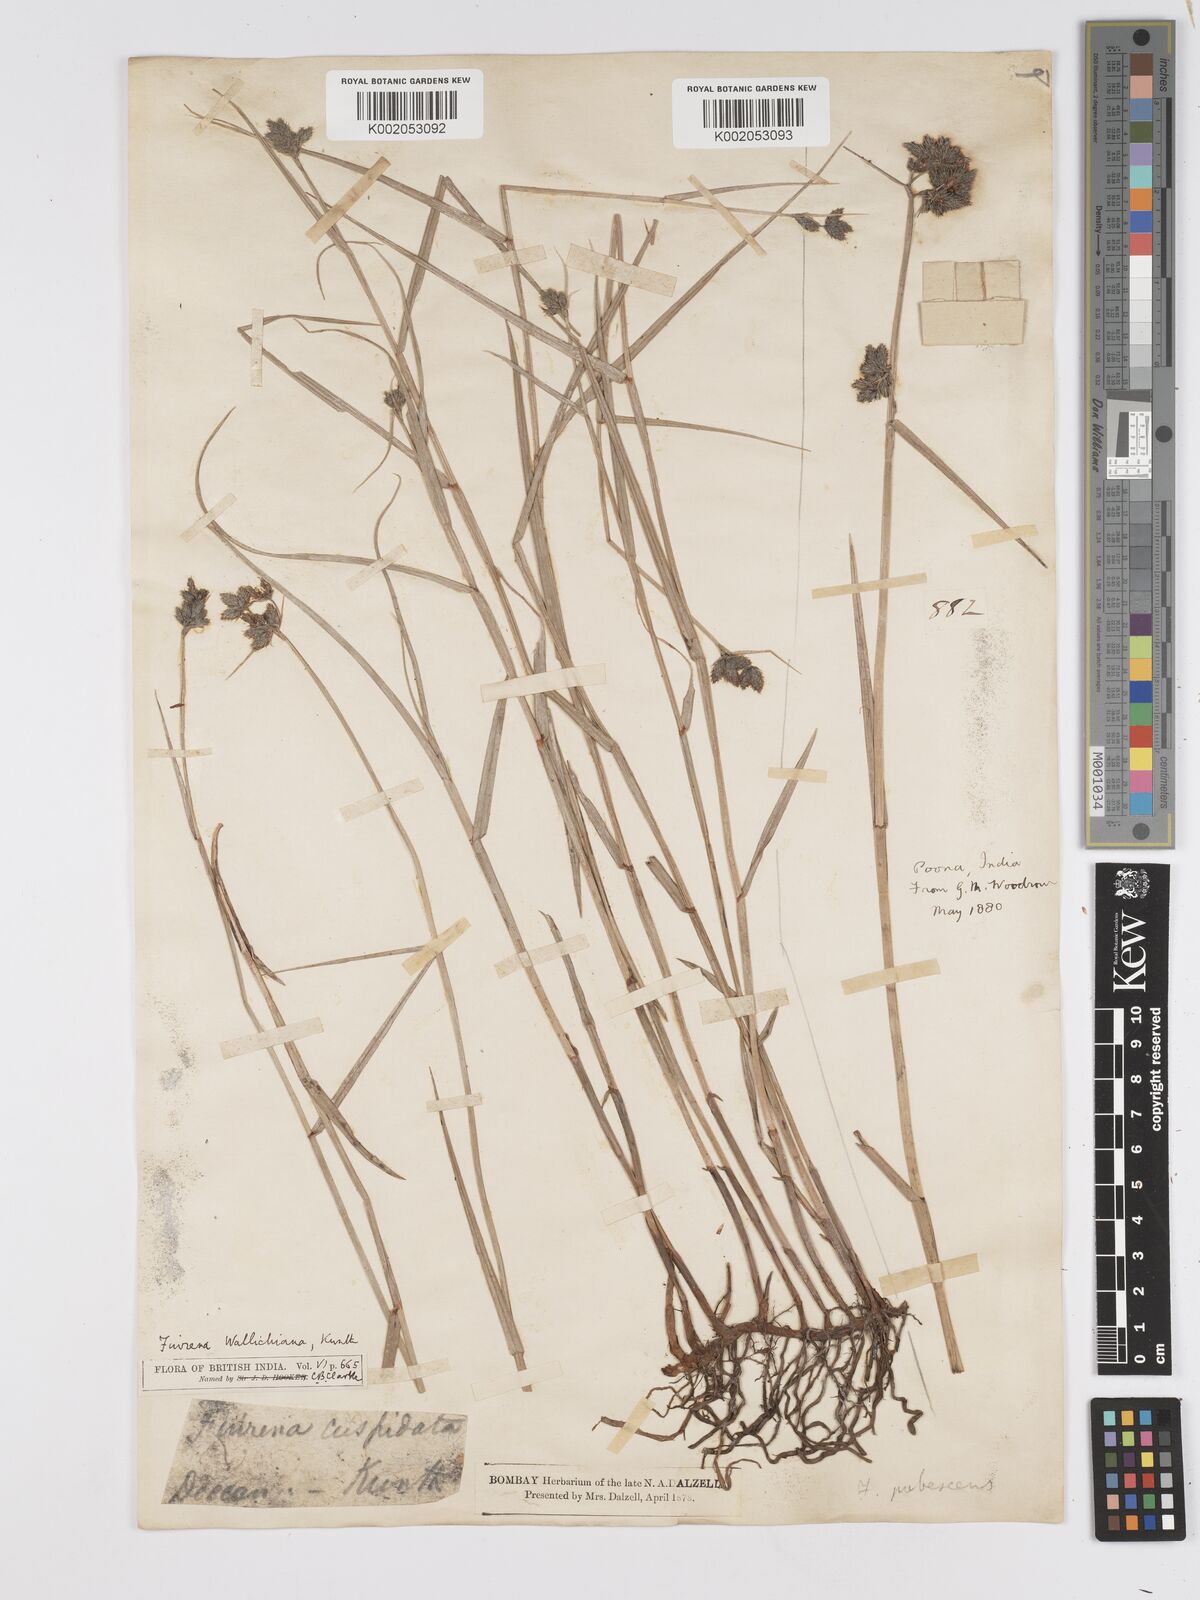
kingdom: Plantae
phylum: Tracheophyta
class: Liliopsida
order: Poales
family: Cyperaceae
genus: Fuirena
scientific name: Fuirena cuspidata
